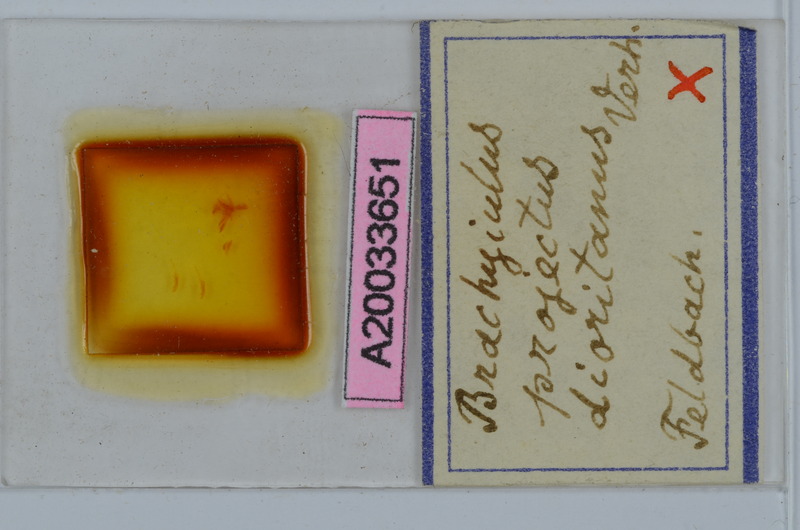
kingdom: Animalia
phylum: Arthropoda
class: Diplopoda
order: Julida
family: Julidae
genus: Megaphyllum
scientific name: Megaphyllum projectum
